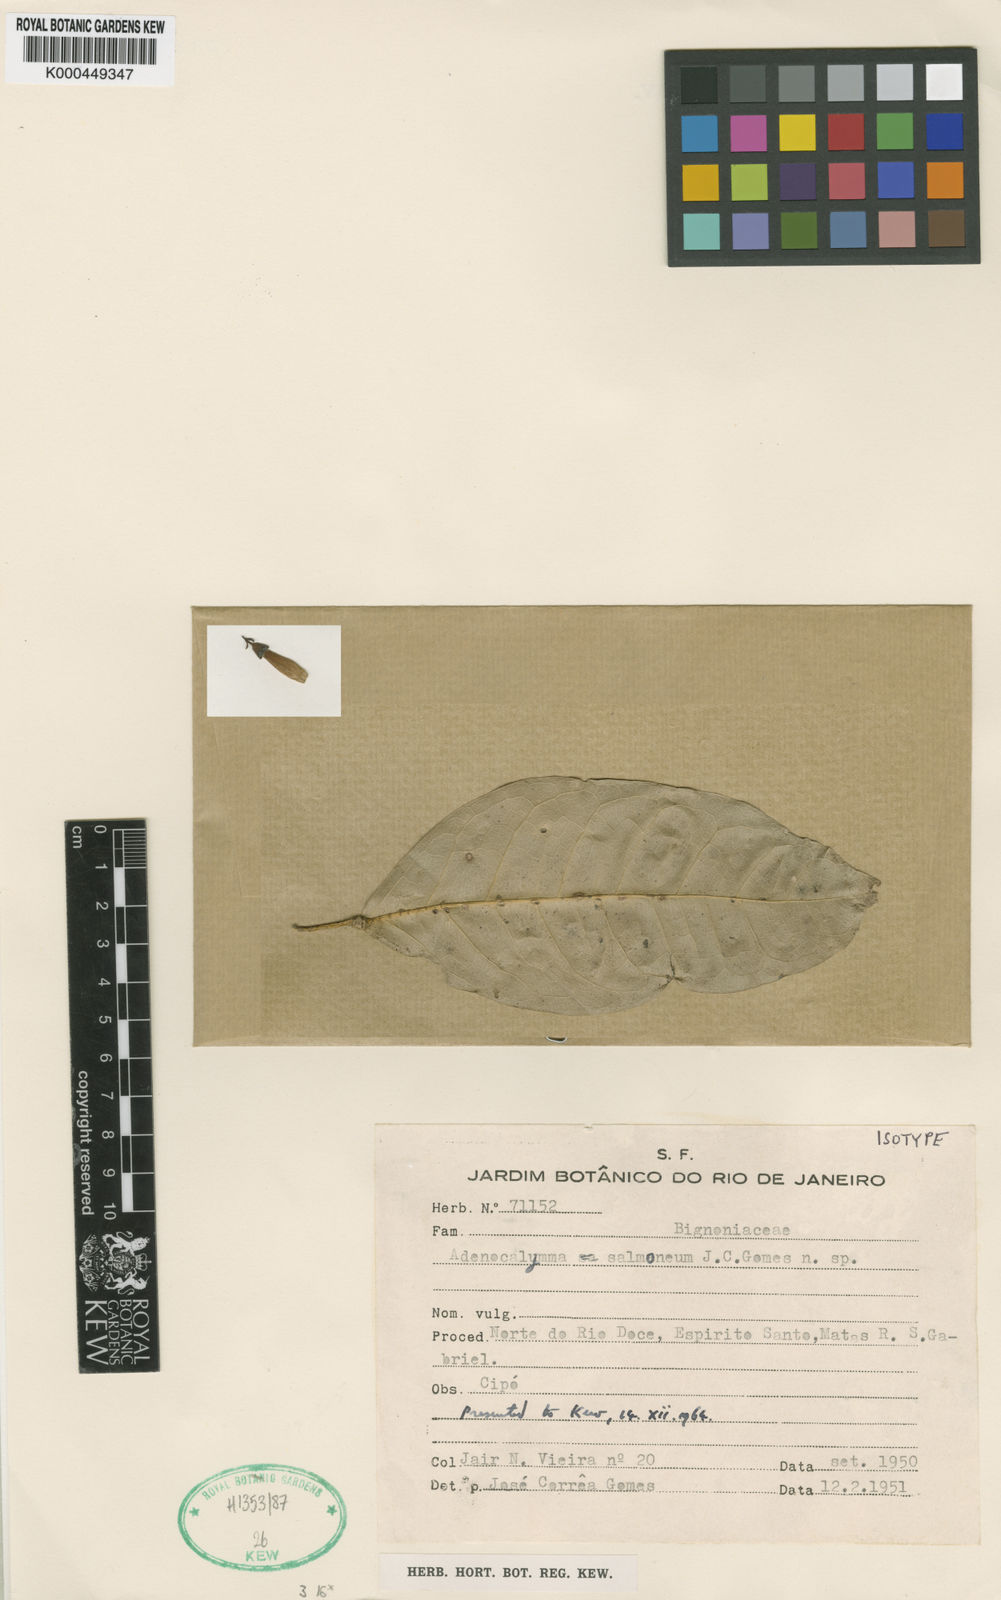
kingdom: Plantae
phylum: Tracheophyta
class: Magnoliopsida
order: Lamiales
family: Bignoniaceae
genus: Adenocalymma
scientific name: Adenocalymma salmoneum
